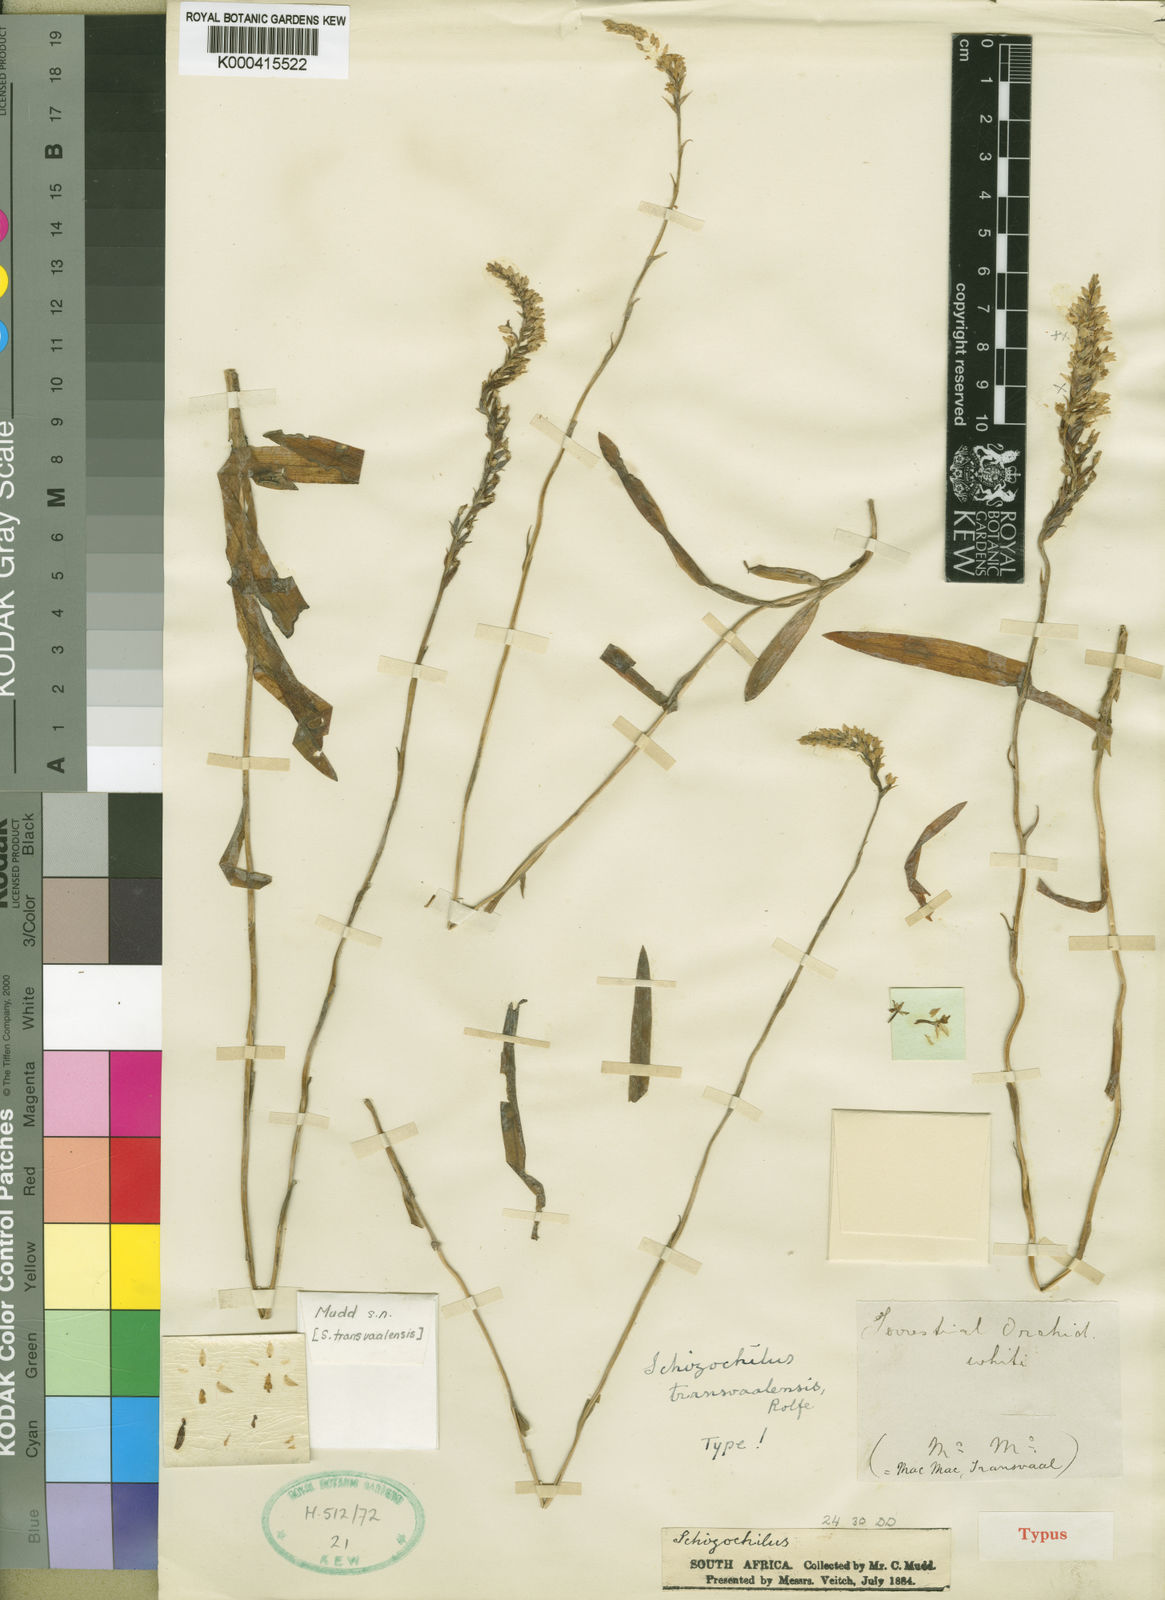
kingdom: Plantae
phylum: Tracheophyta
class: Liliopsida
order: Asparagales
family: Orchidaceae
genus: Schizochilus
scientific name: Schizochilus cecilii
